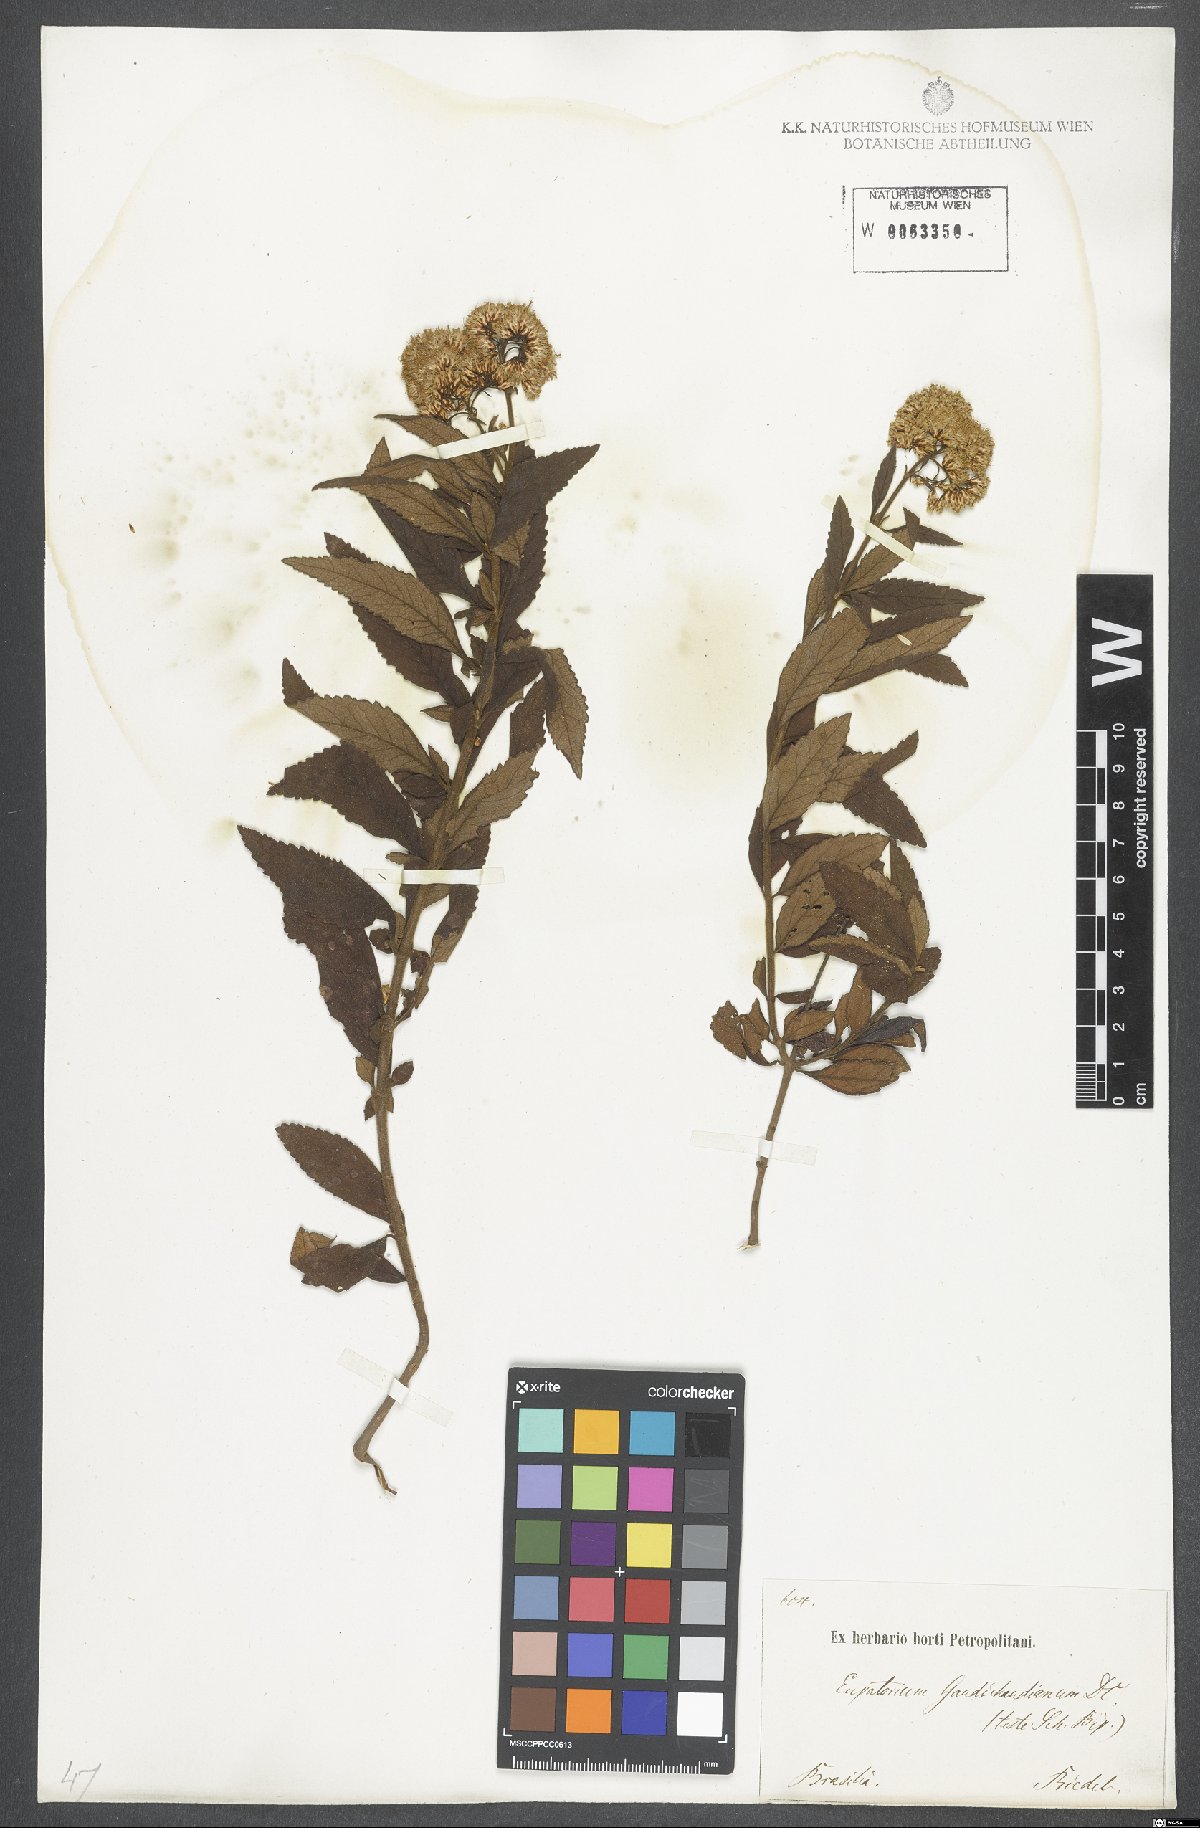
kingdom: Plantae
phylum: Tracheophyta
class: Magnoliopsida
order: Asterales
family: Asteraceae
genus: Grazielia
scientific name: Grazielia intermedia
